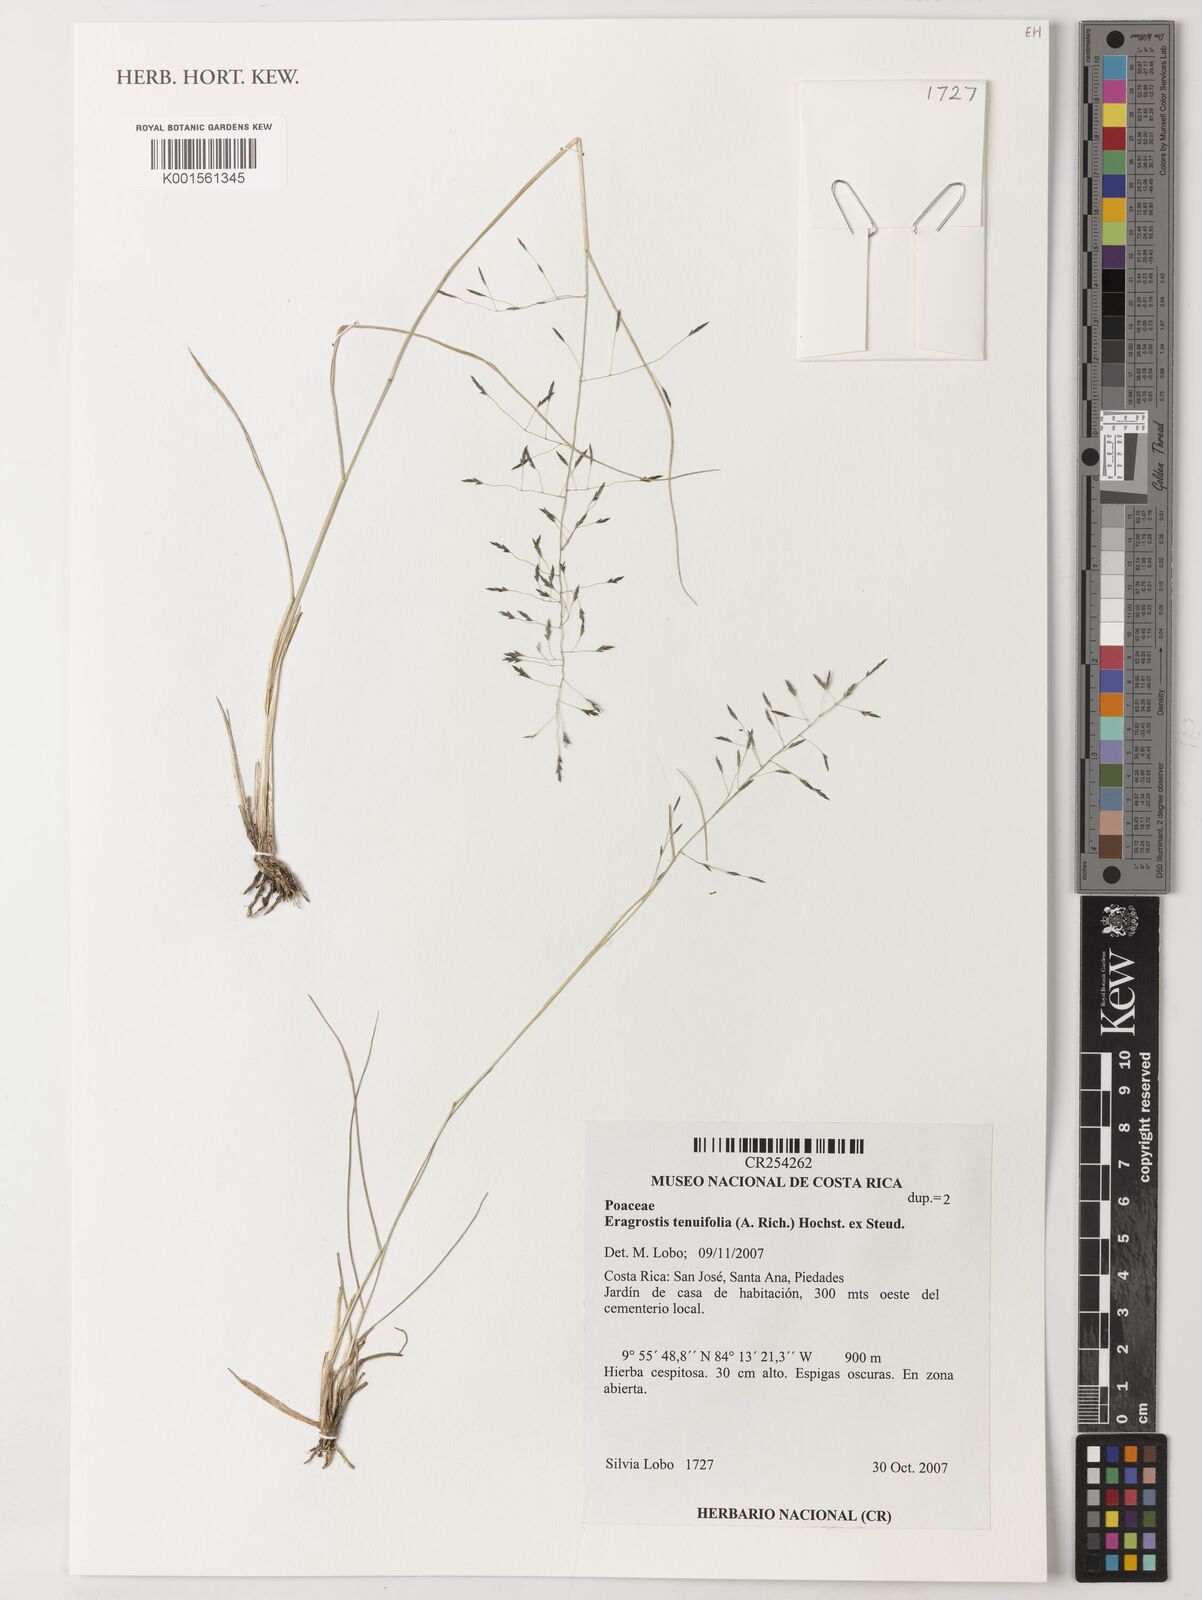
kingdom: Plantae
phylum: Tracheophyta
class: Liliopsida
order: Poales
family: Poaceae
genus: Eragrostis
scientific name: Eragrostis pilosa
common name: Indian lovegrass
